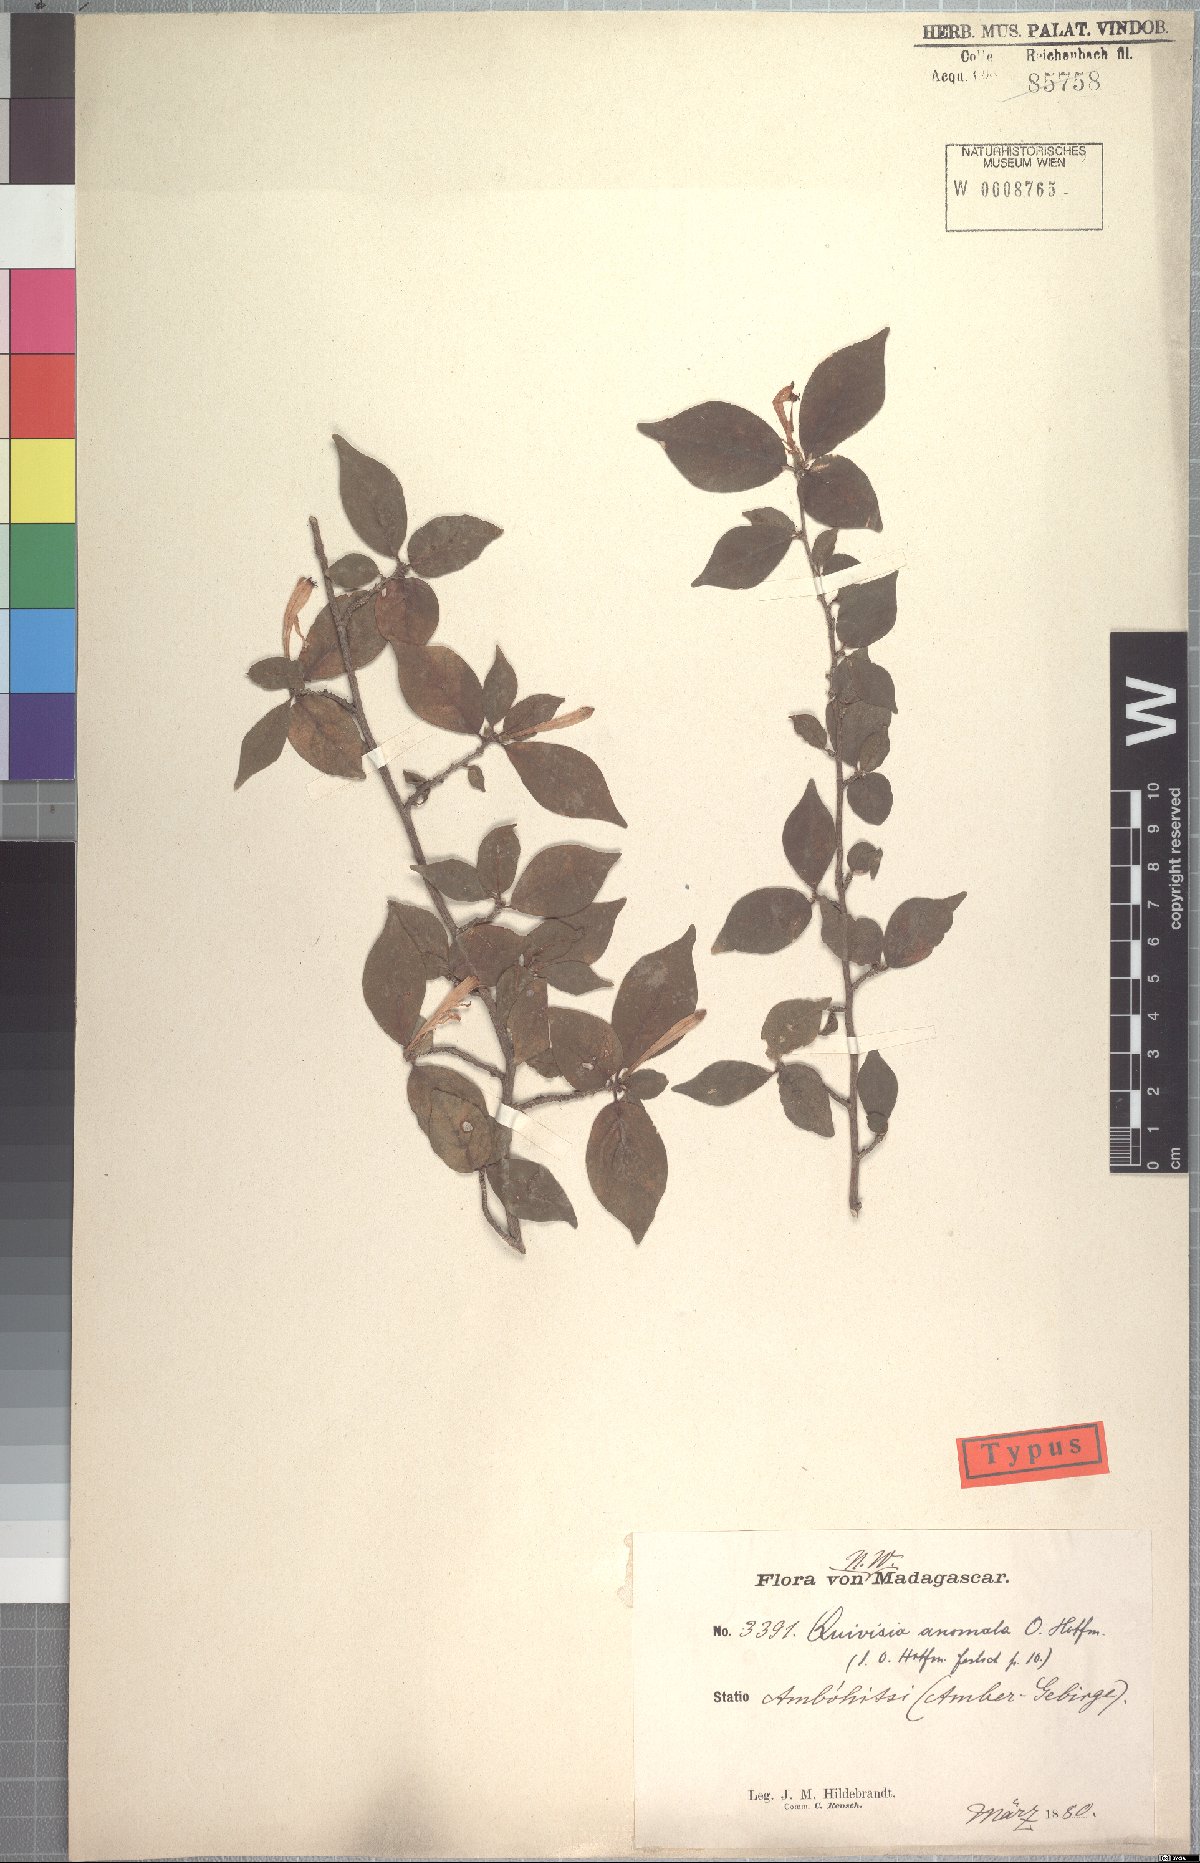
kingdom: Plantae
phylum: Tracheophyta
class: Magnoliopsida
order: Sapindales
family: Meliaceae
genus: Turraea
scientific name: Turraea anomala
